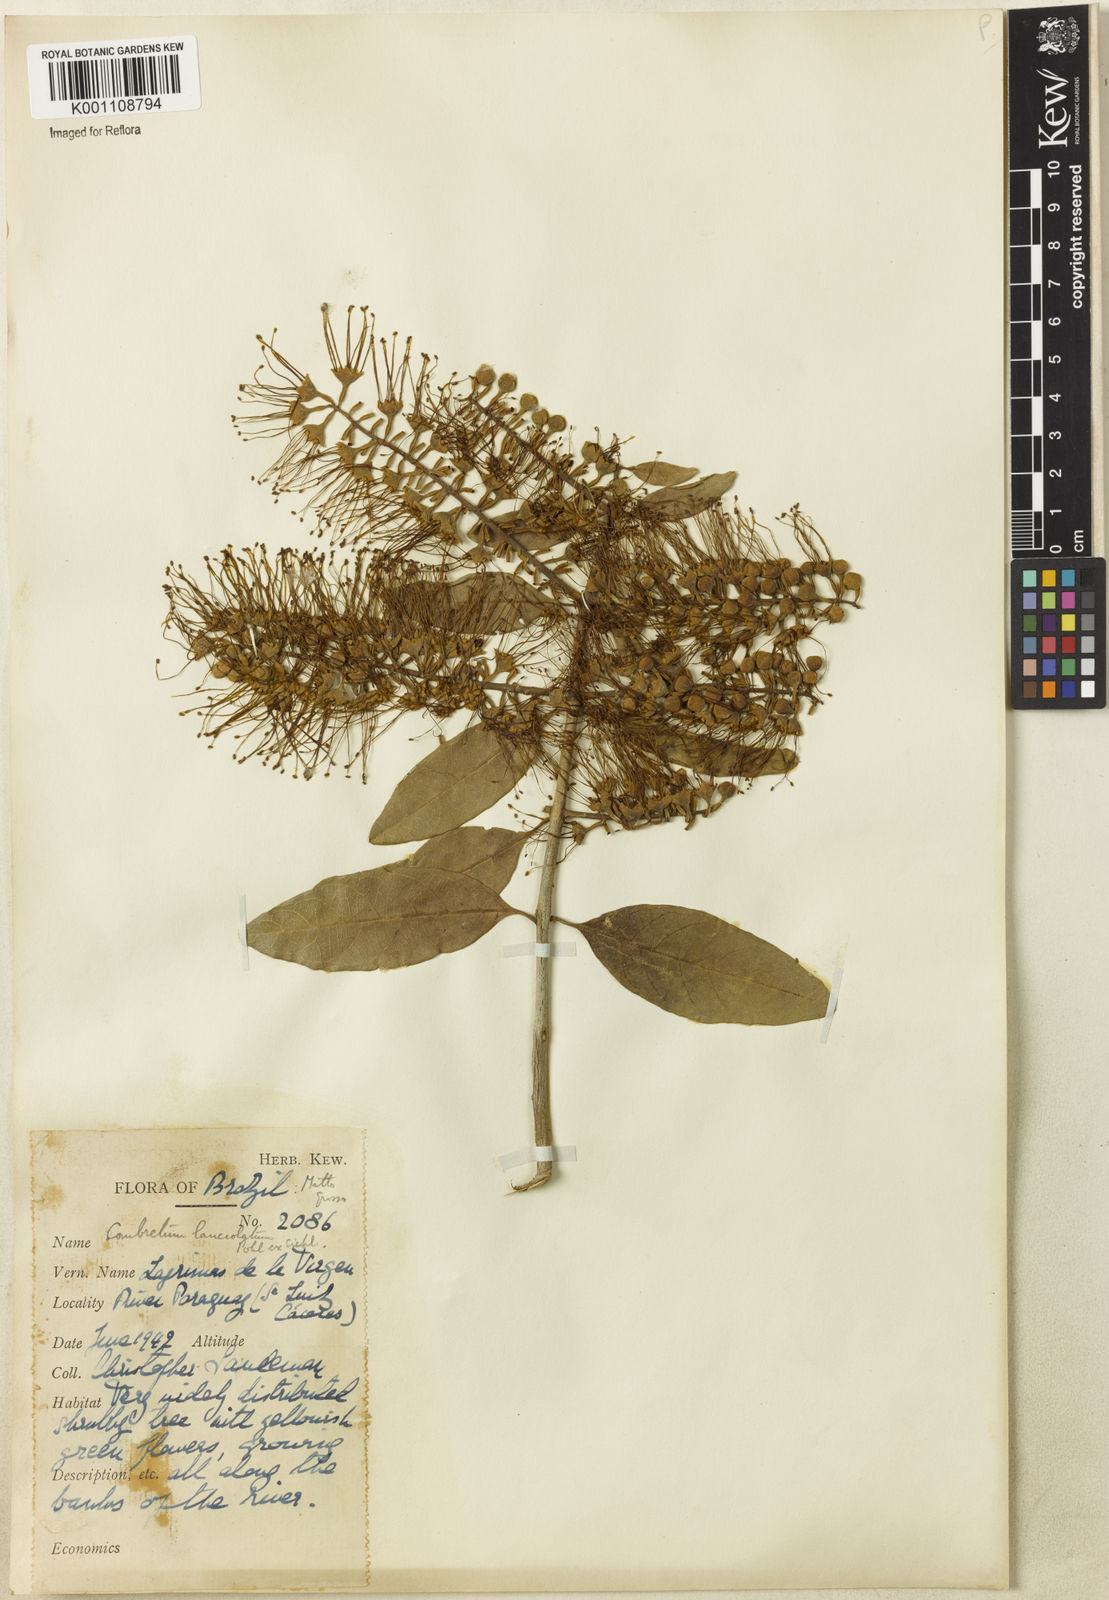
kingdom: Plantae
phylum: Tracheophyta
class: Magnoliopsida
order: Myrtales
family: Combretaceae
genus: Combretum
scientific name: Combretum lanceolatum
